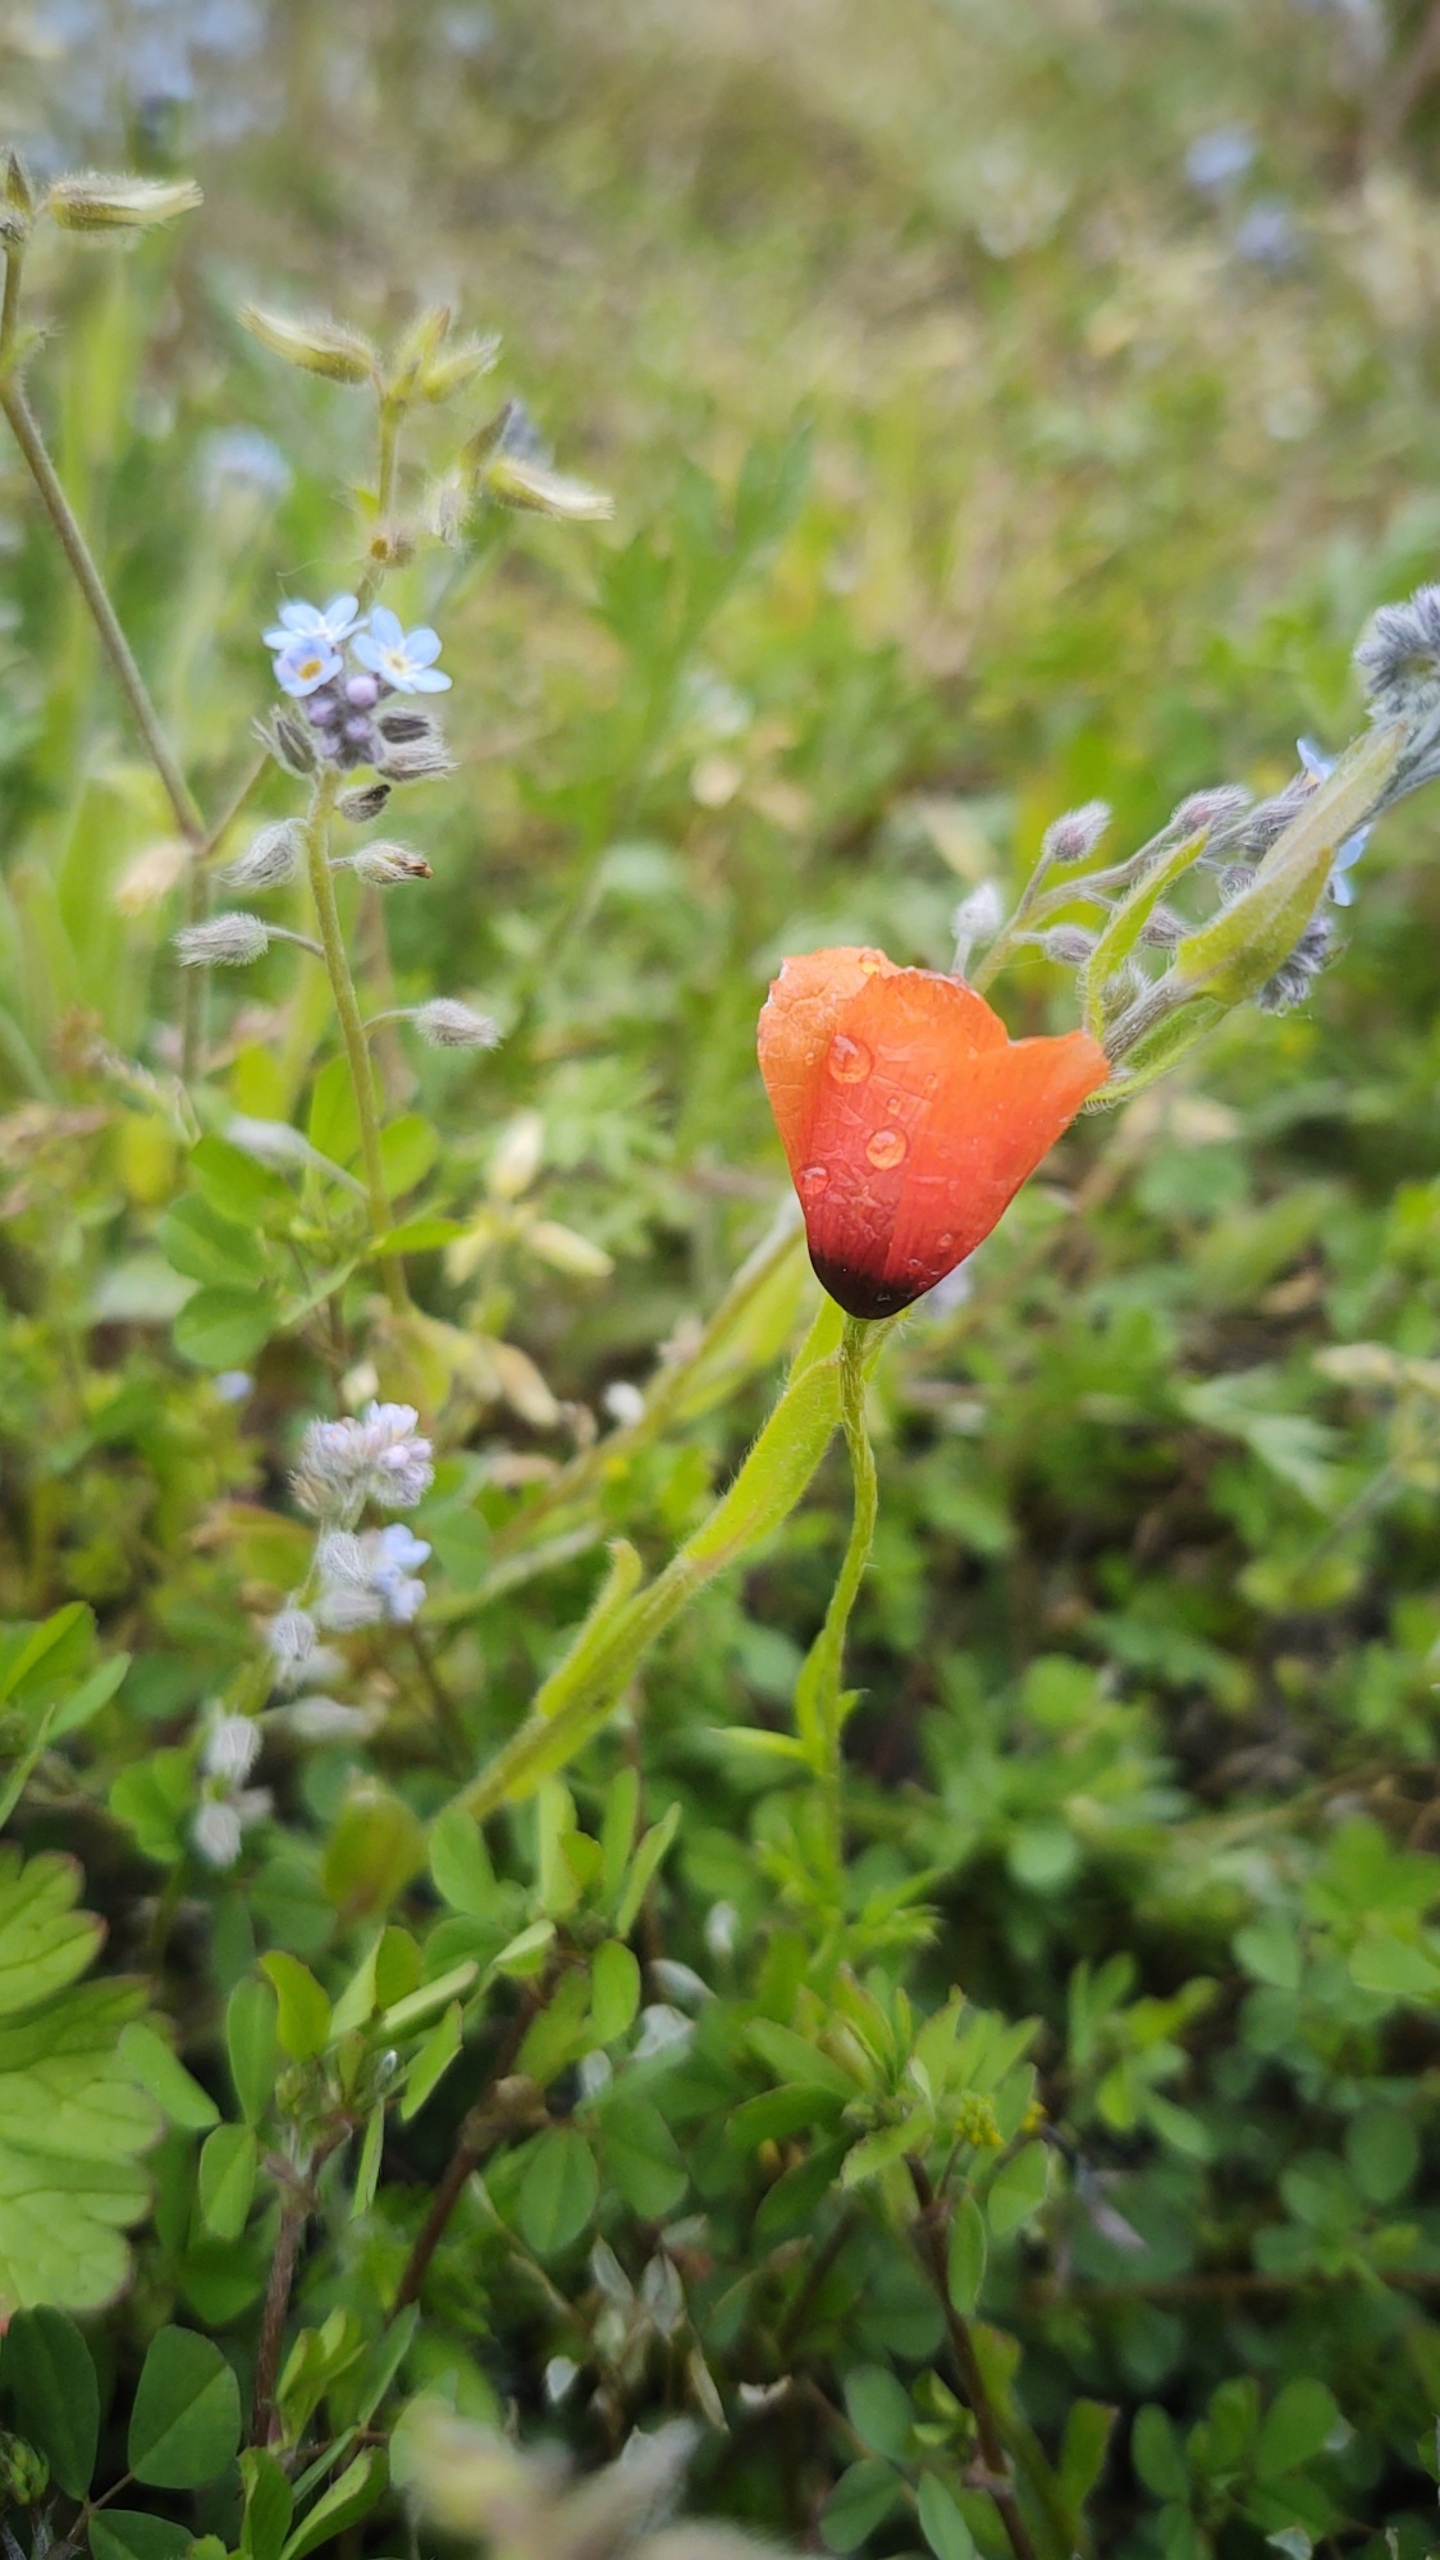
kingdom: Plantae
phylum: Tracheophyta
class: Magnoliopsida
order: Ranunculales
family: Papaveraceae
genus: Roemeria
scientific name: Roemeria argemone
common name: Kølle-valmue
